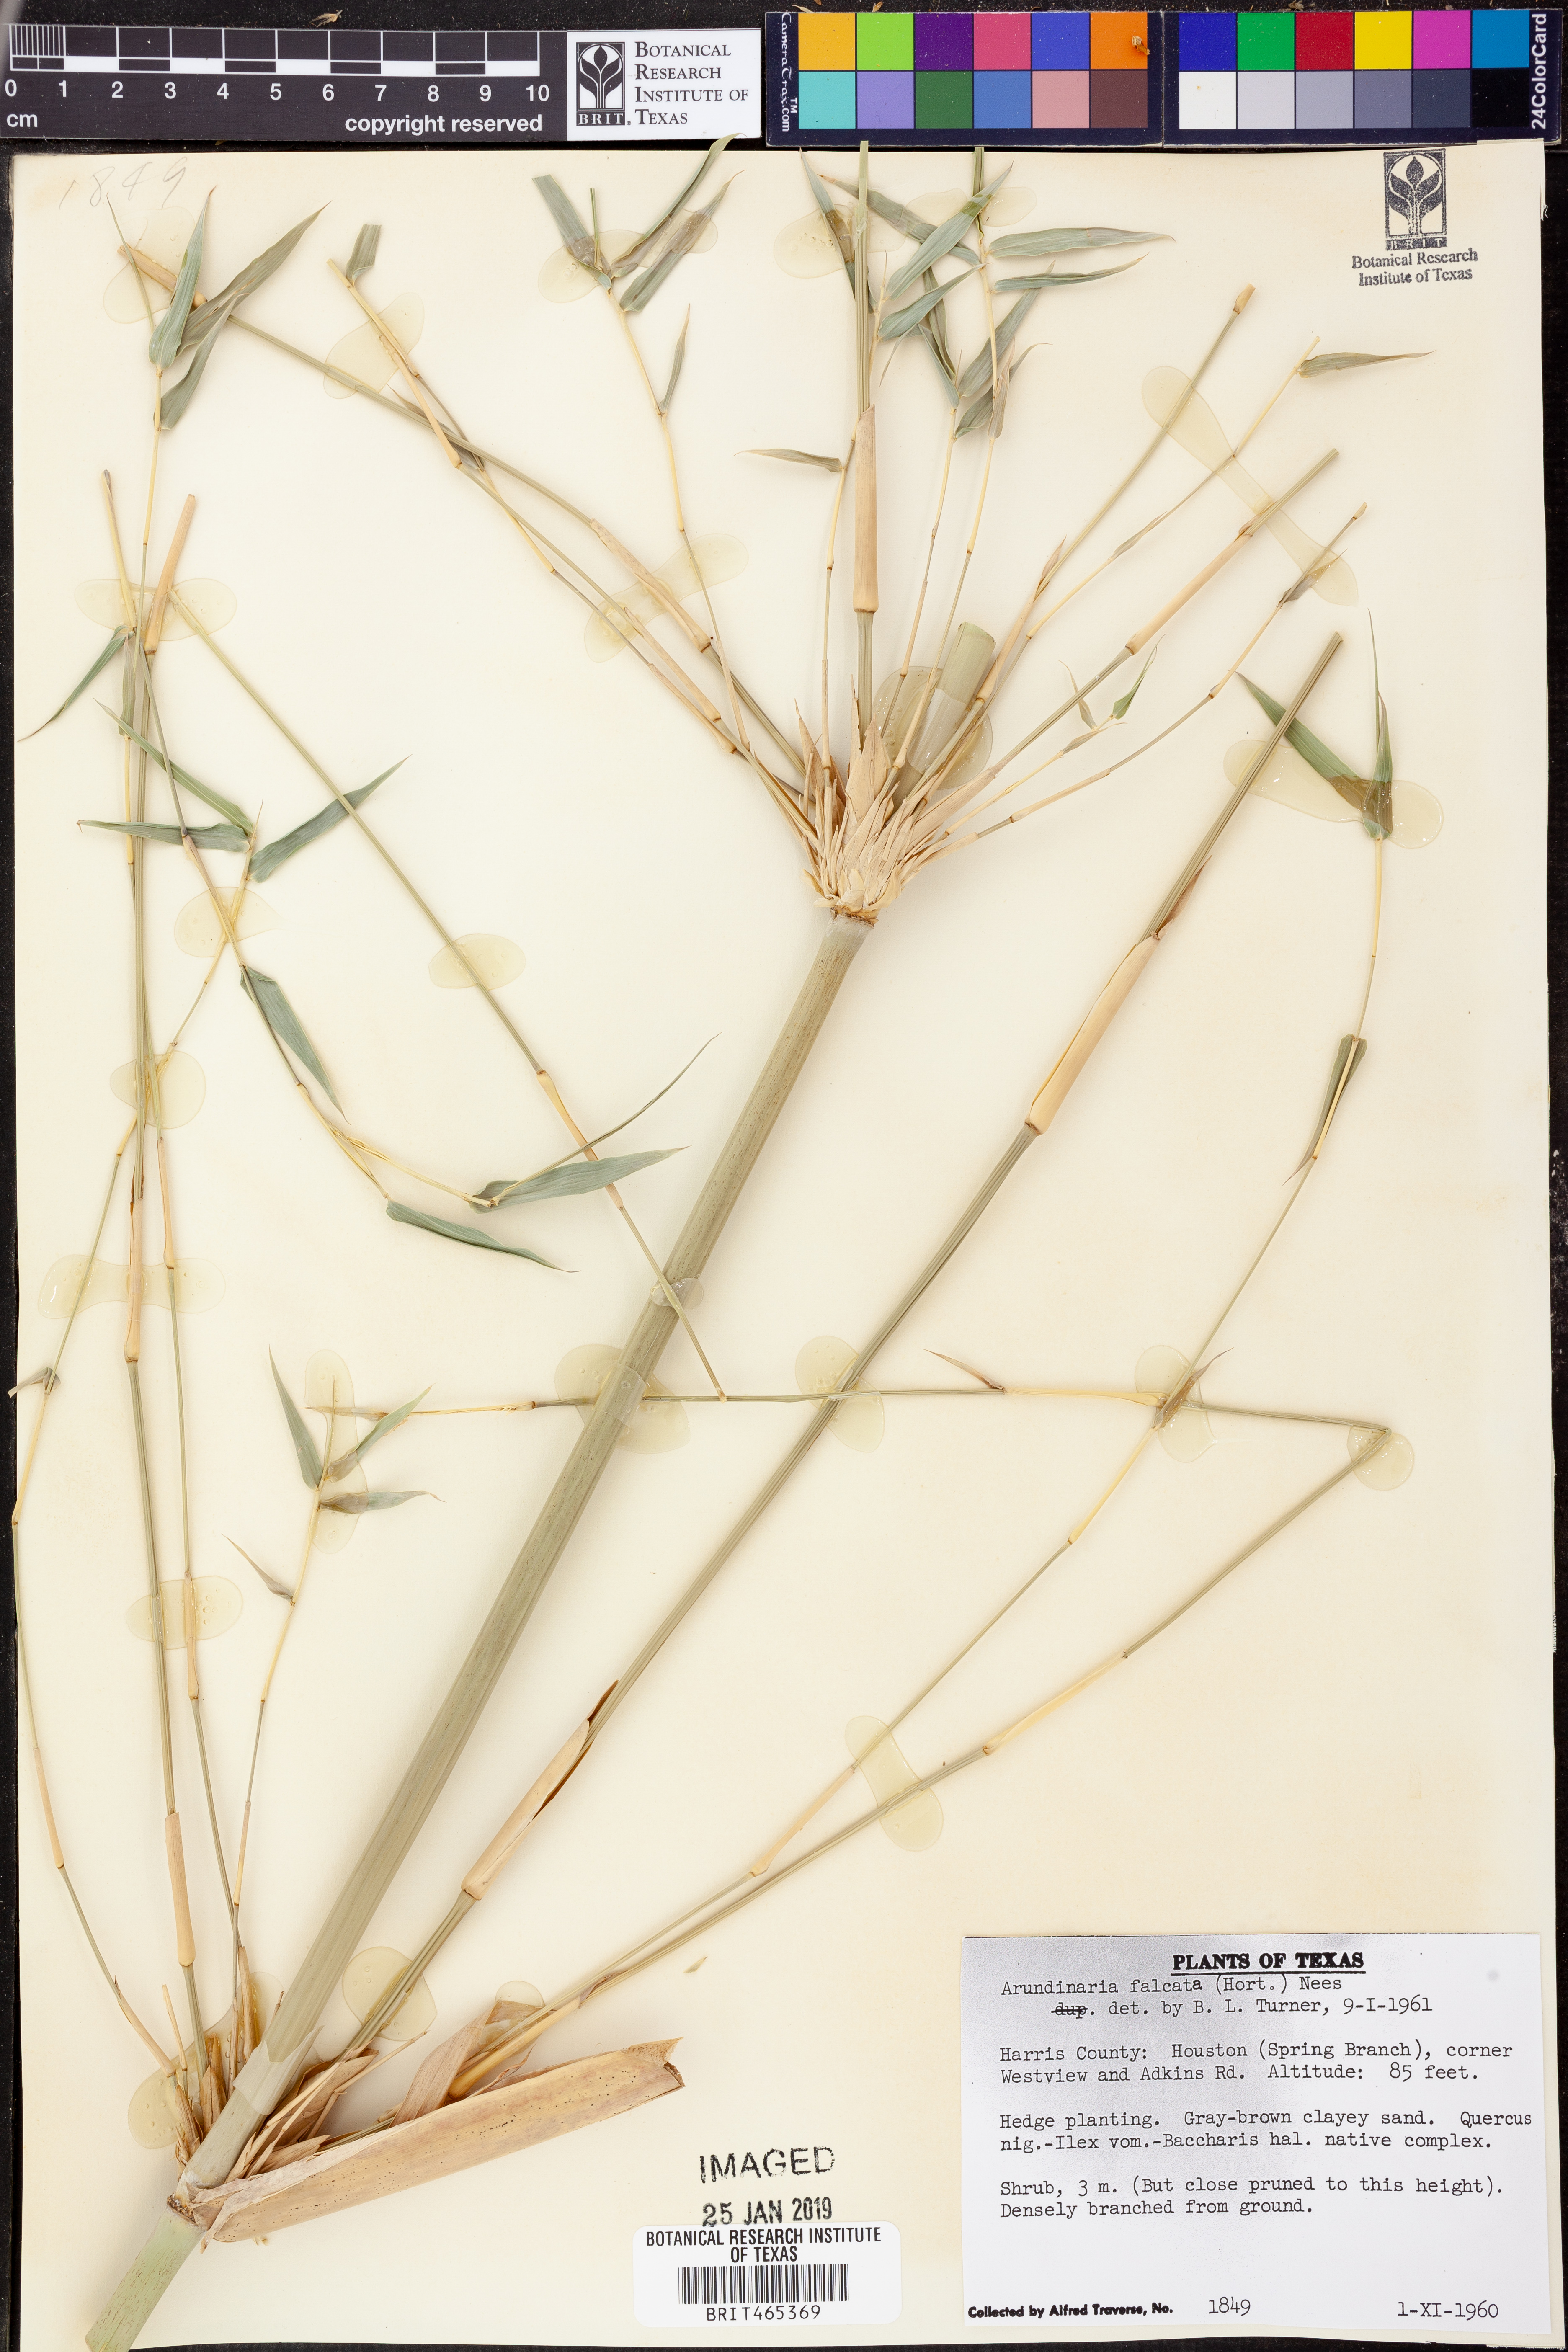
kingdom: Plantae
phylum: Tracheophyta
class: Liliopsida
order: Poales
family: Poaceae
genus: Arundinaria
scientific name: Arundinaria falcata
